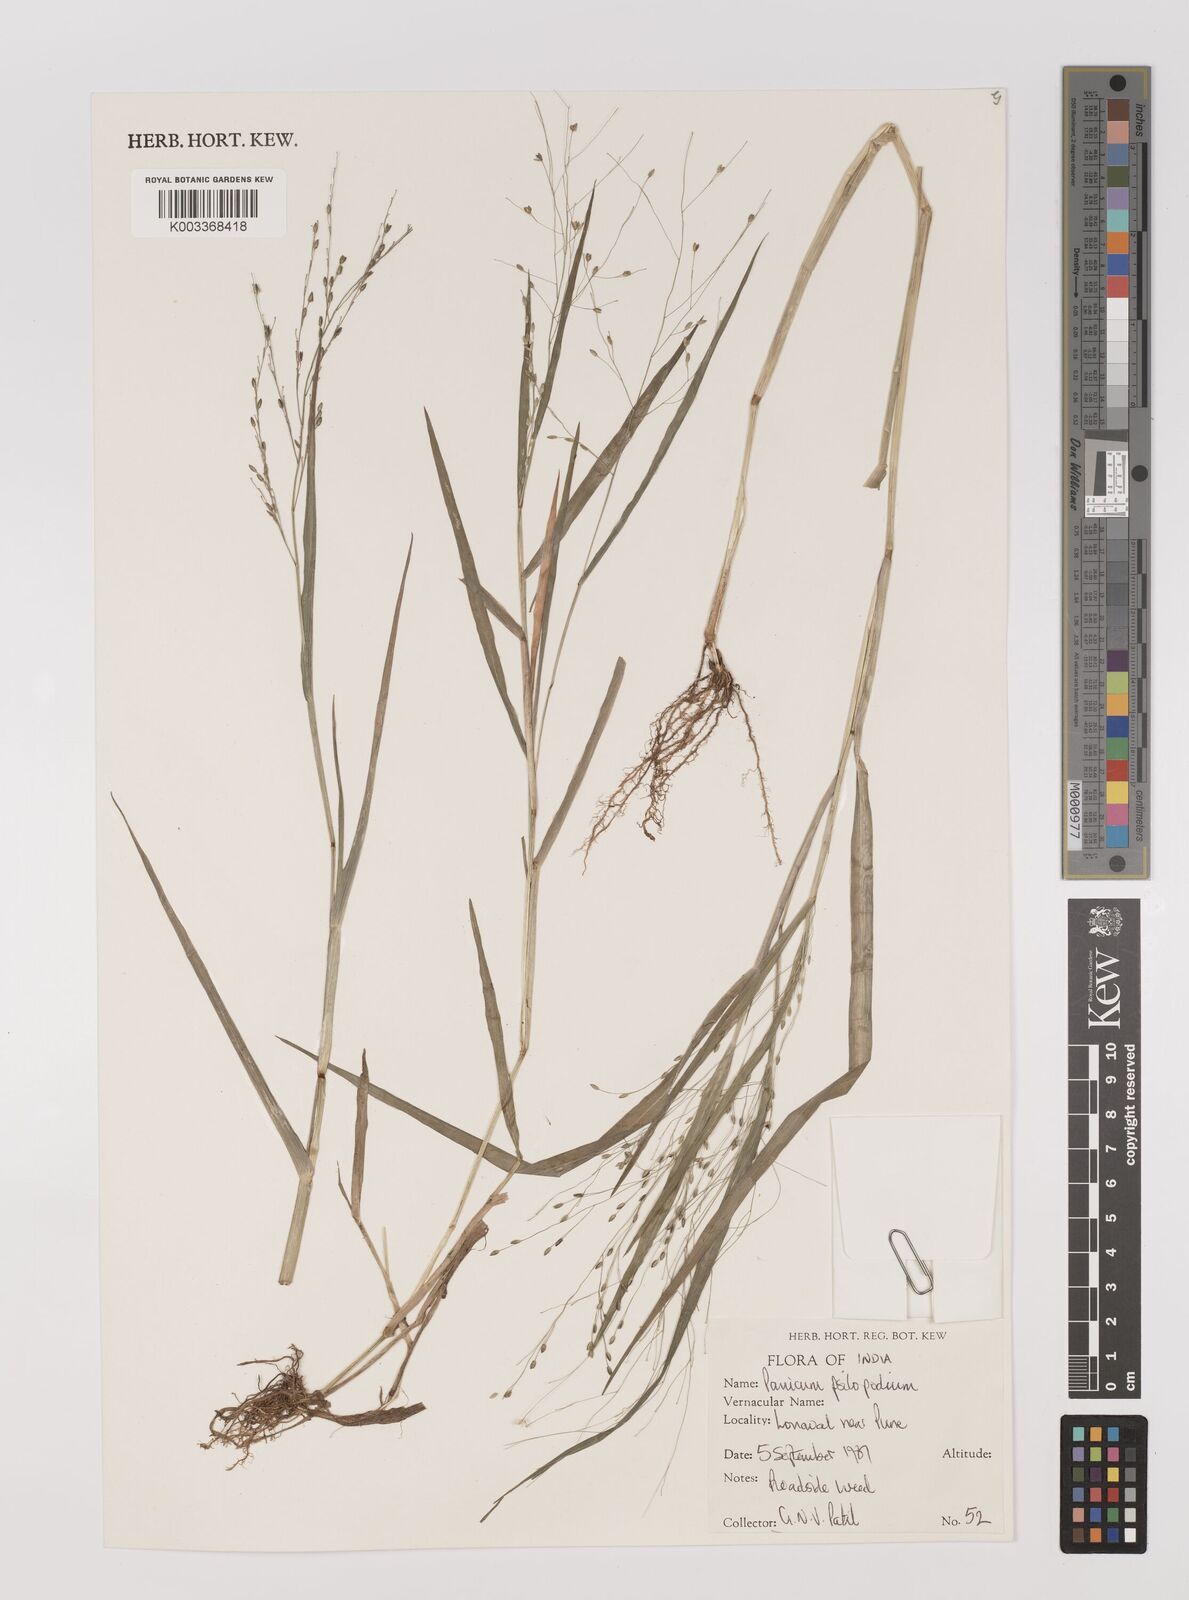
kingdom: Plantae
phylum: Tracheophyta
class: Liliopsida
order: Poales
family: Poaceae
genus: Panicum
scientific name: Panicum sumatrense
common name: Little millet
